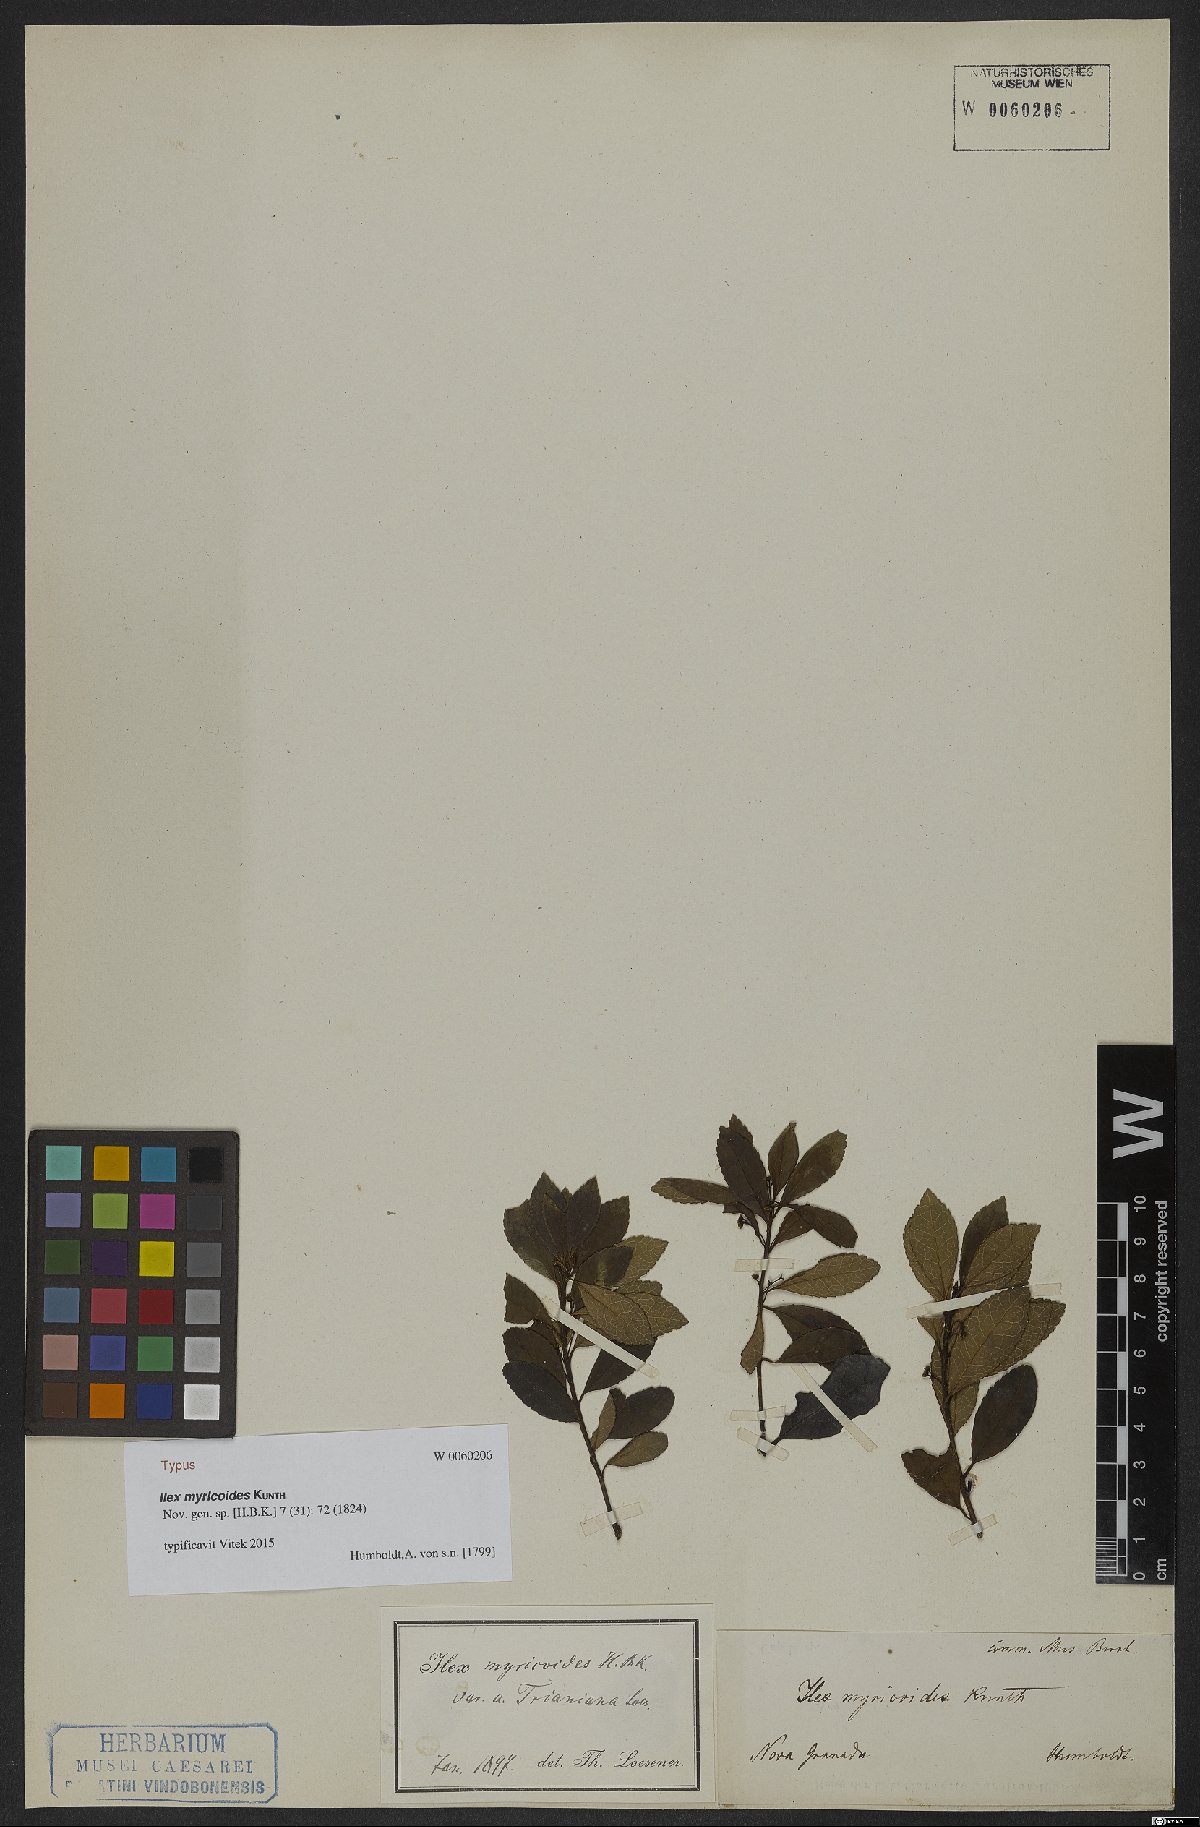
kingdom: Plantae
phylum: Tracheophyta
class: Magnoliopsida
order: Aquifoliales
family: Aquifoliaceae
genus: Ilex
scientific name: Ilex myricoides
